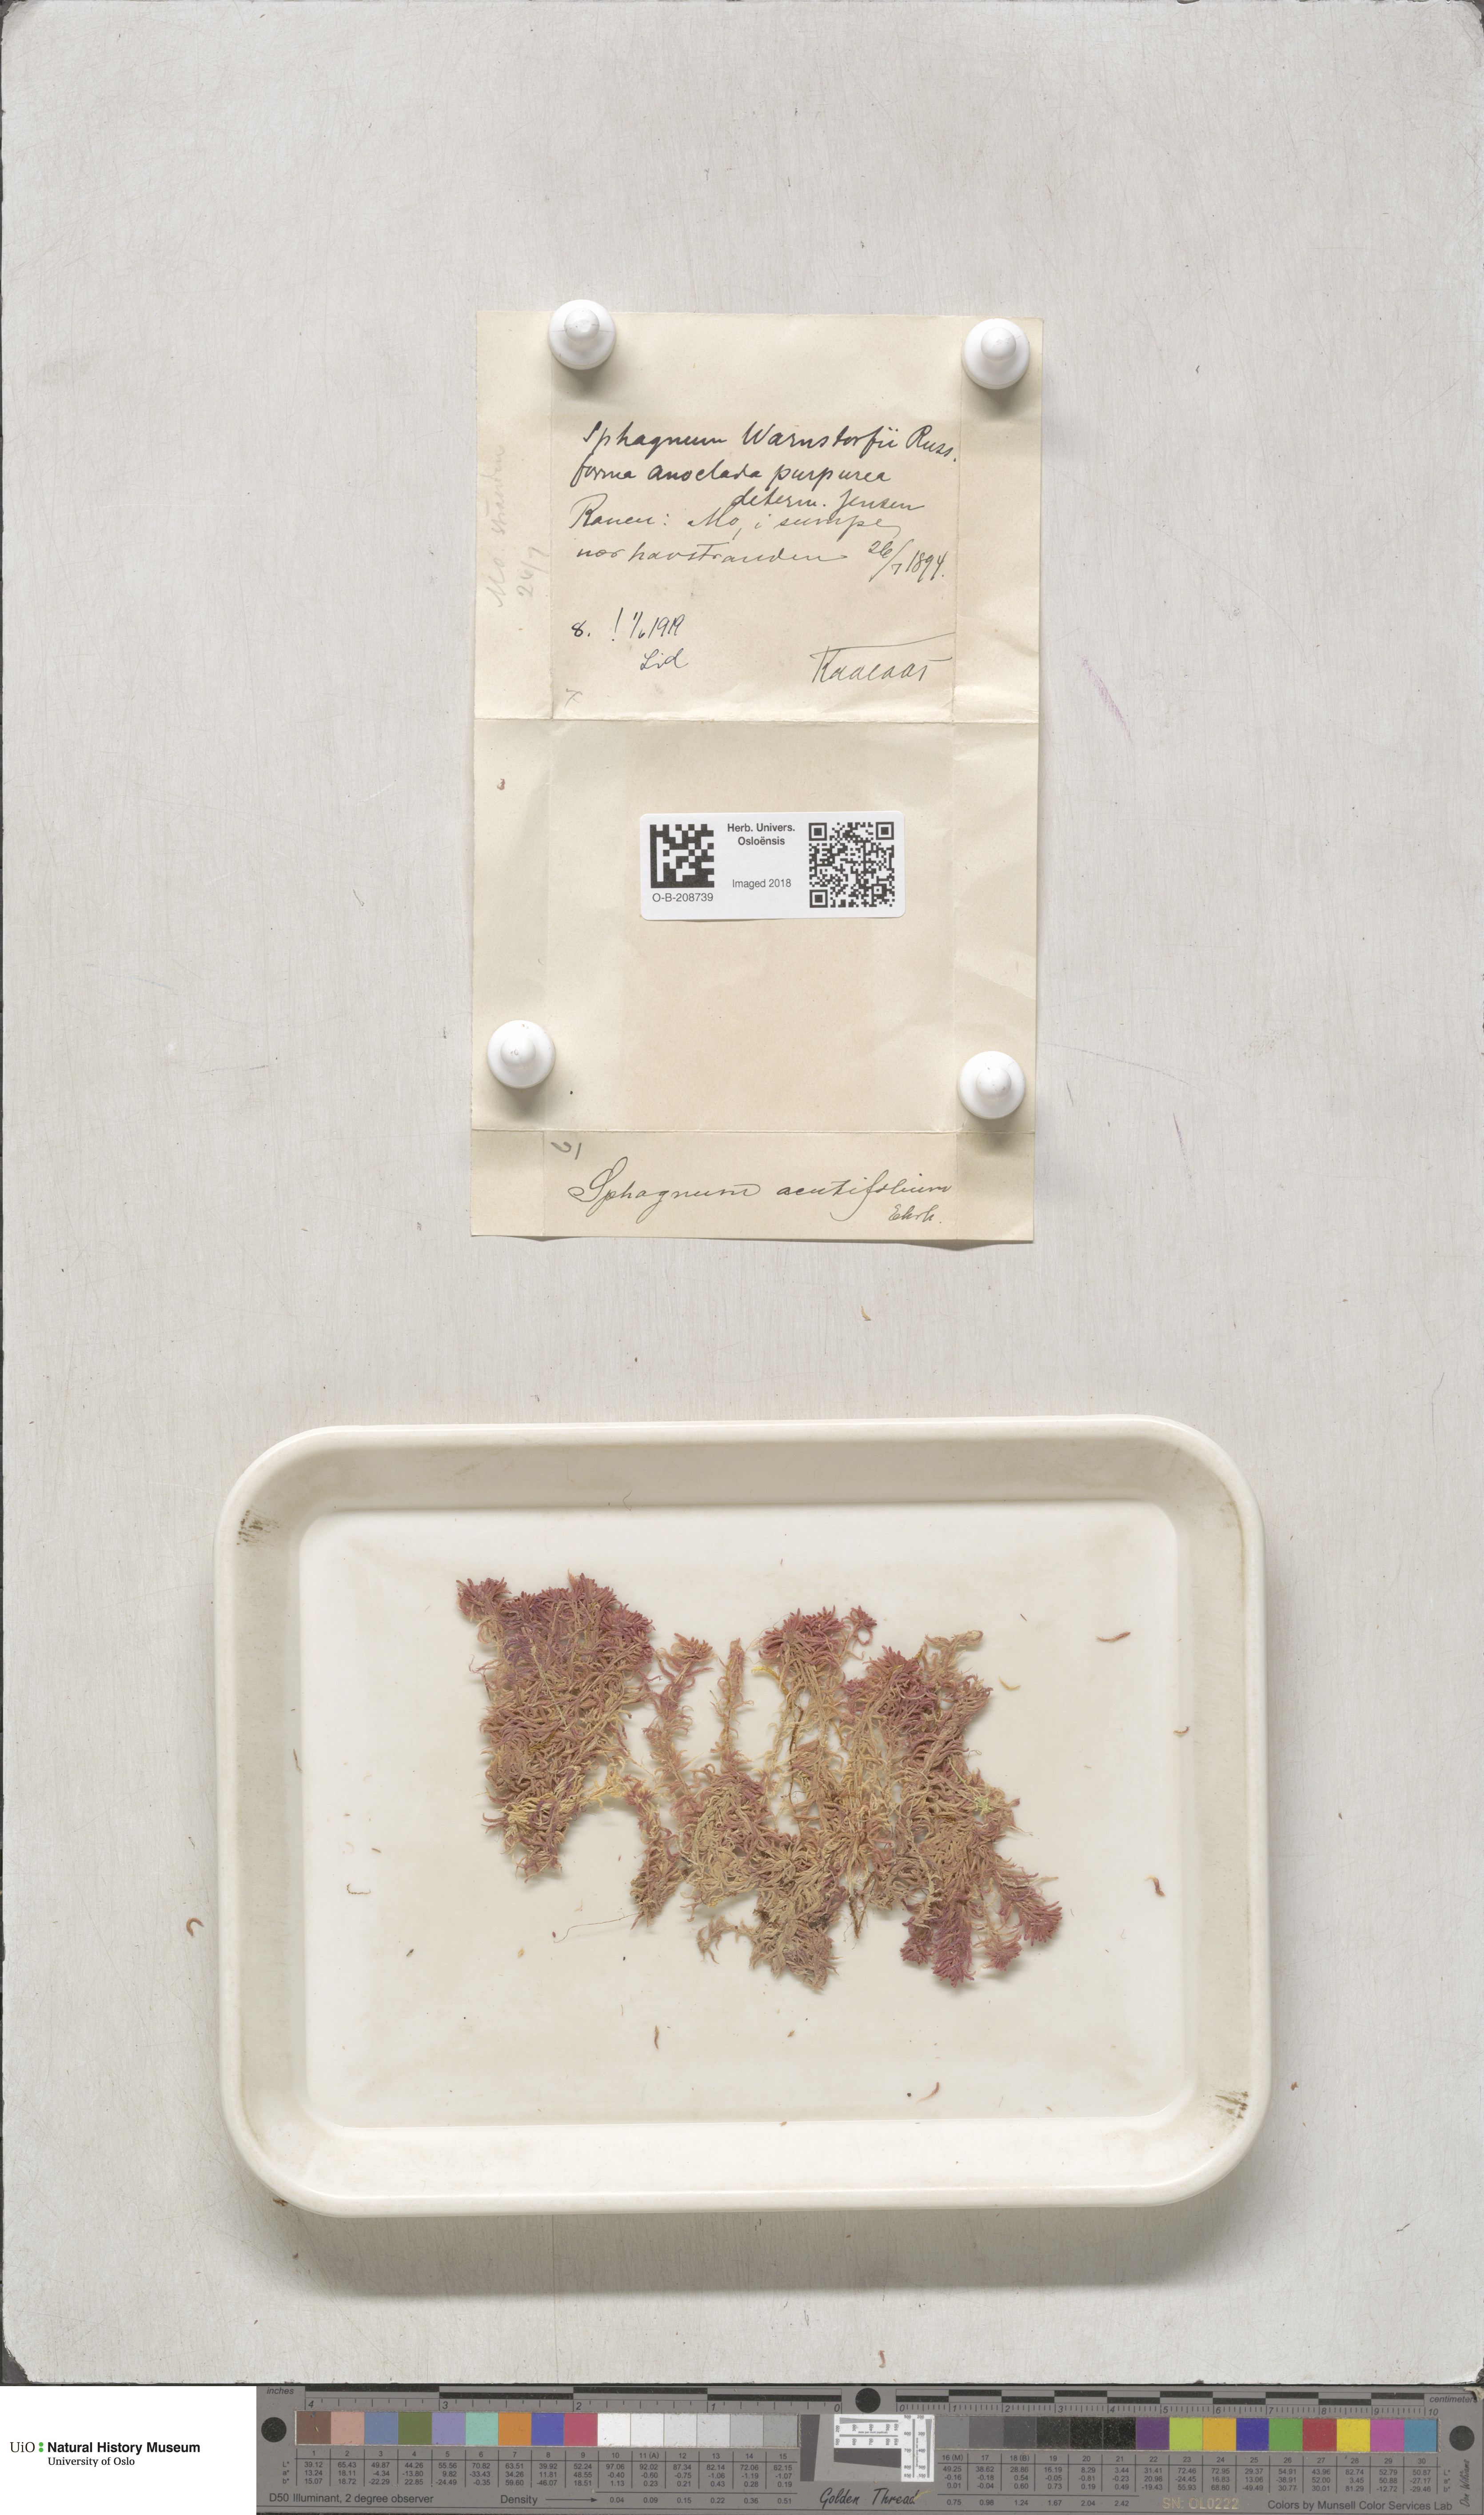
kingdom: Plantae
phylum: Bryophyta
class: Sphagnopsida
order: Sphagnales
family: Sphagnaceae
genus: Sphagnum
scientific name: Sphagnum warnstorfii
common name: Warnstorf's peat moss
